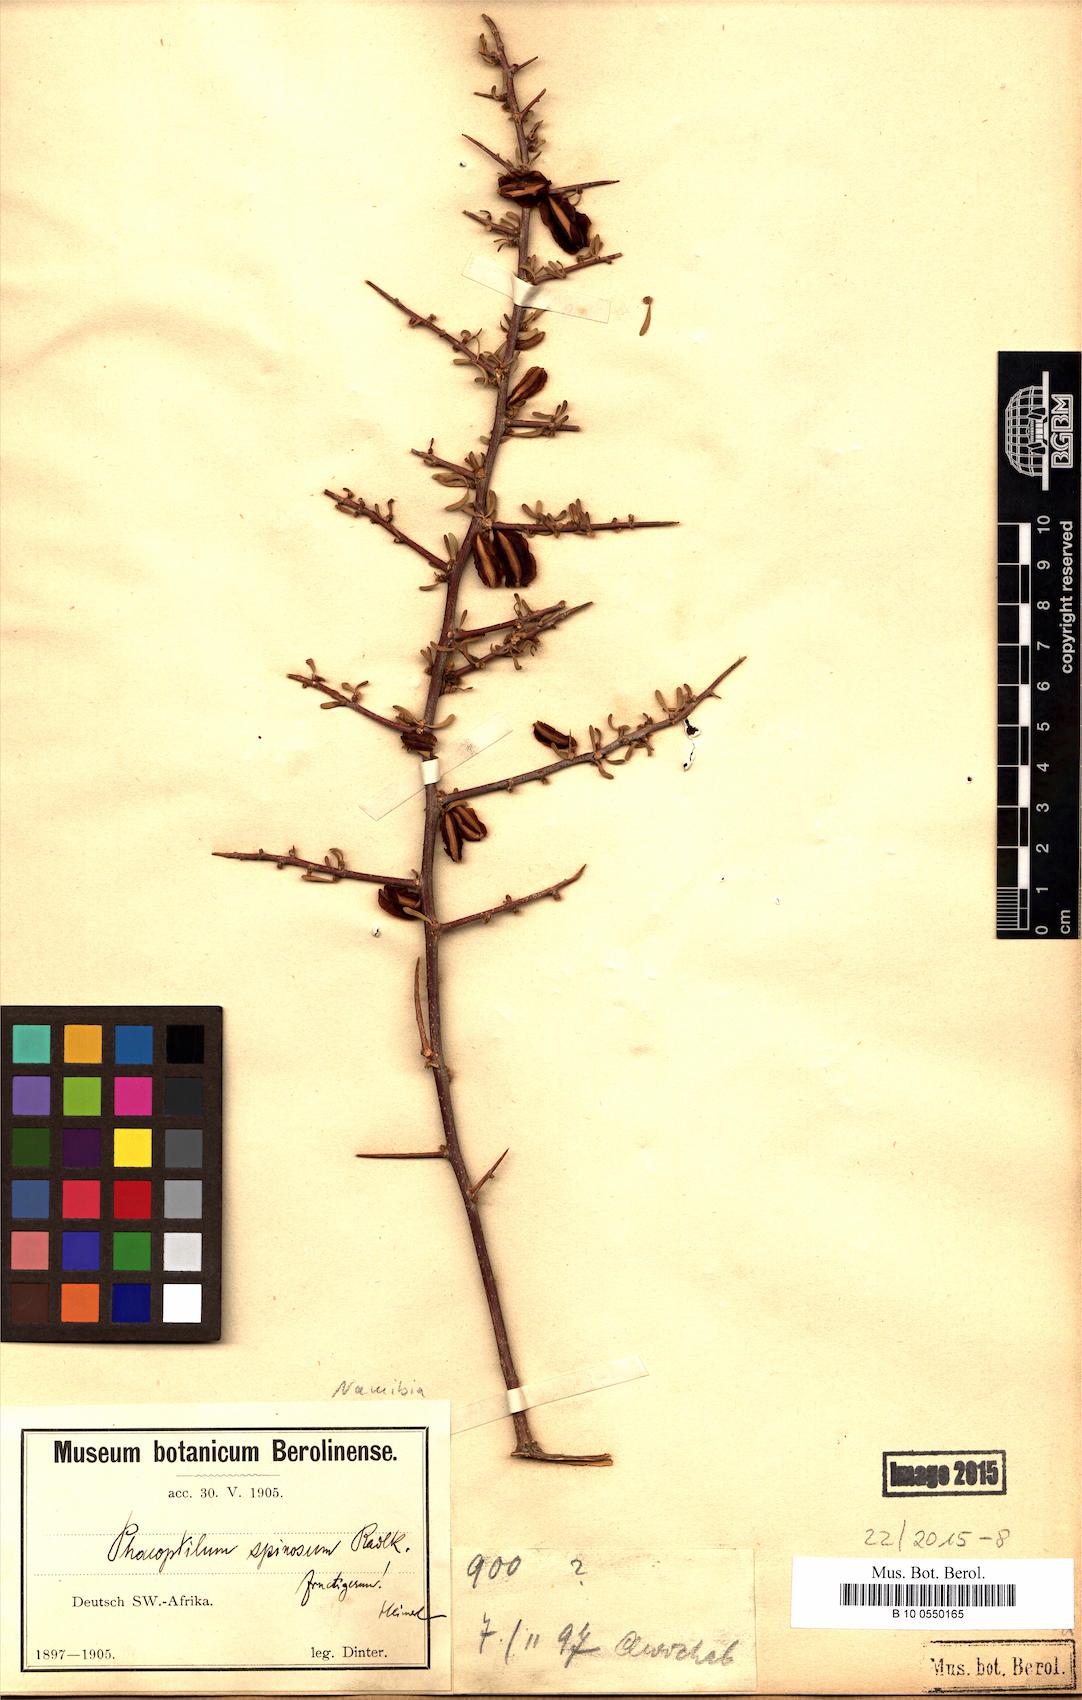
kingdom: Plantae
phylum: Tracheophyta
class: Magnoliopsida
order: Caryophyllales
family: Nyctaginaceae
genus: Phaeoptilum
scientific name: Phaeoptilum spinosum
